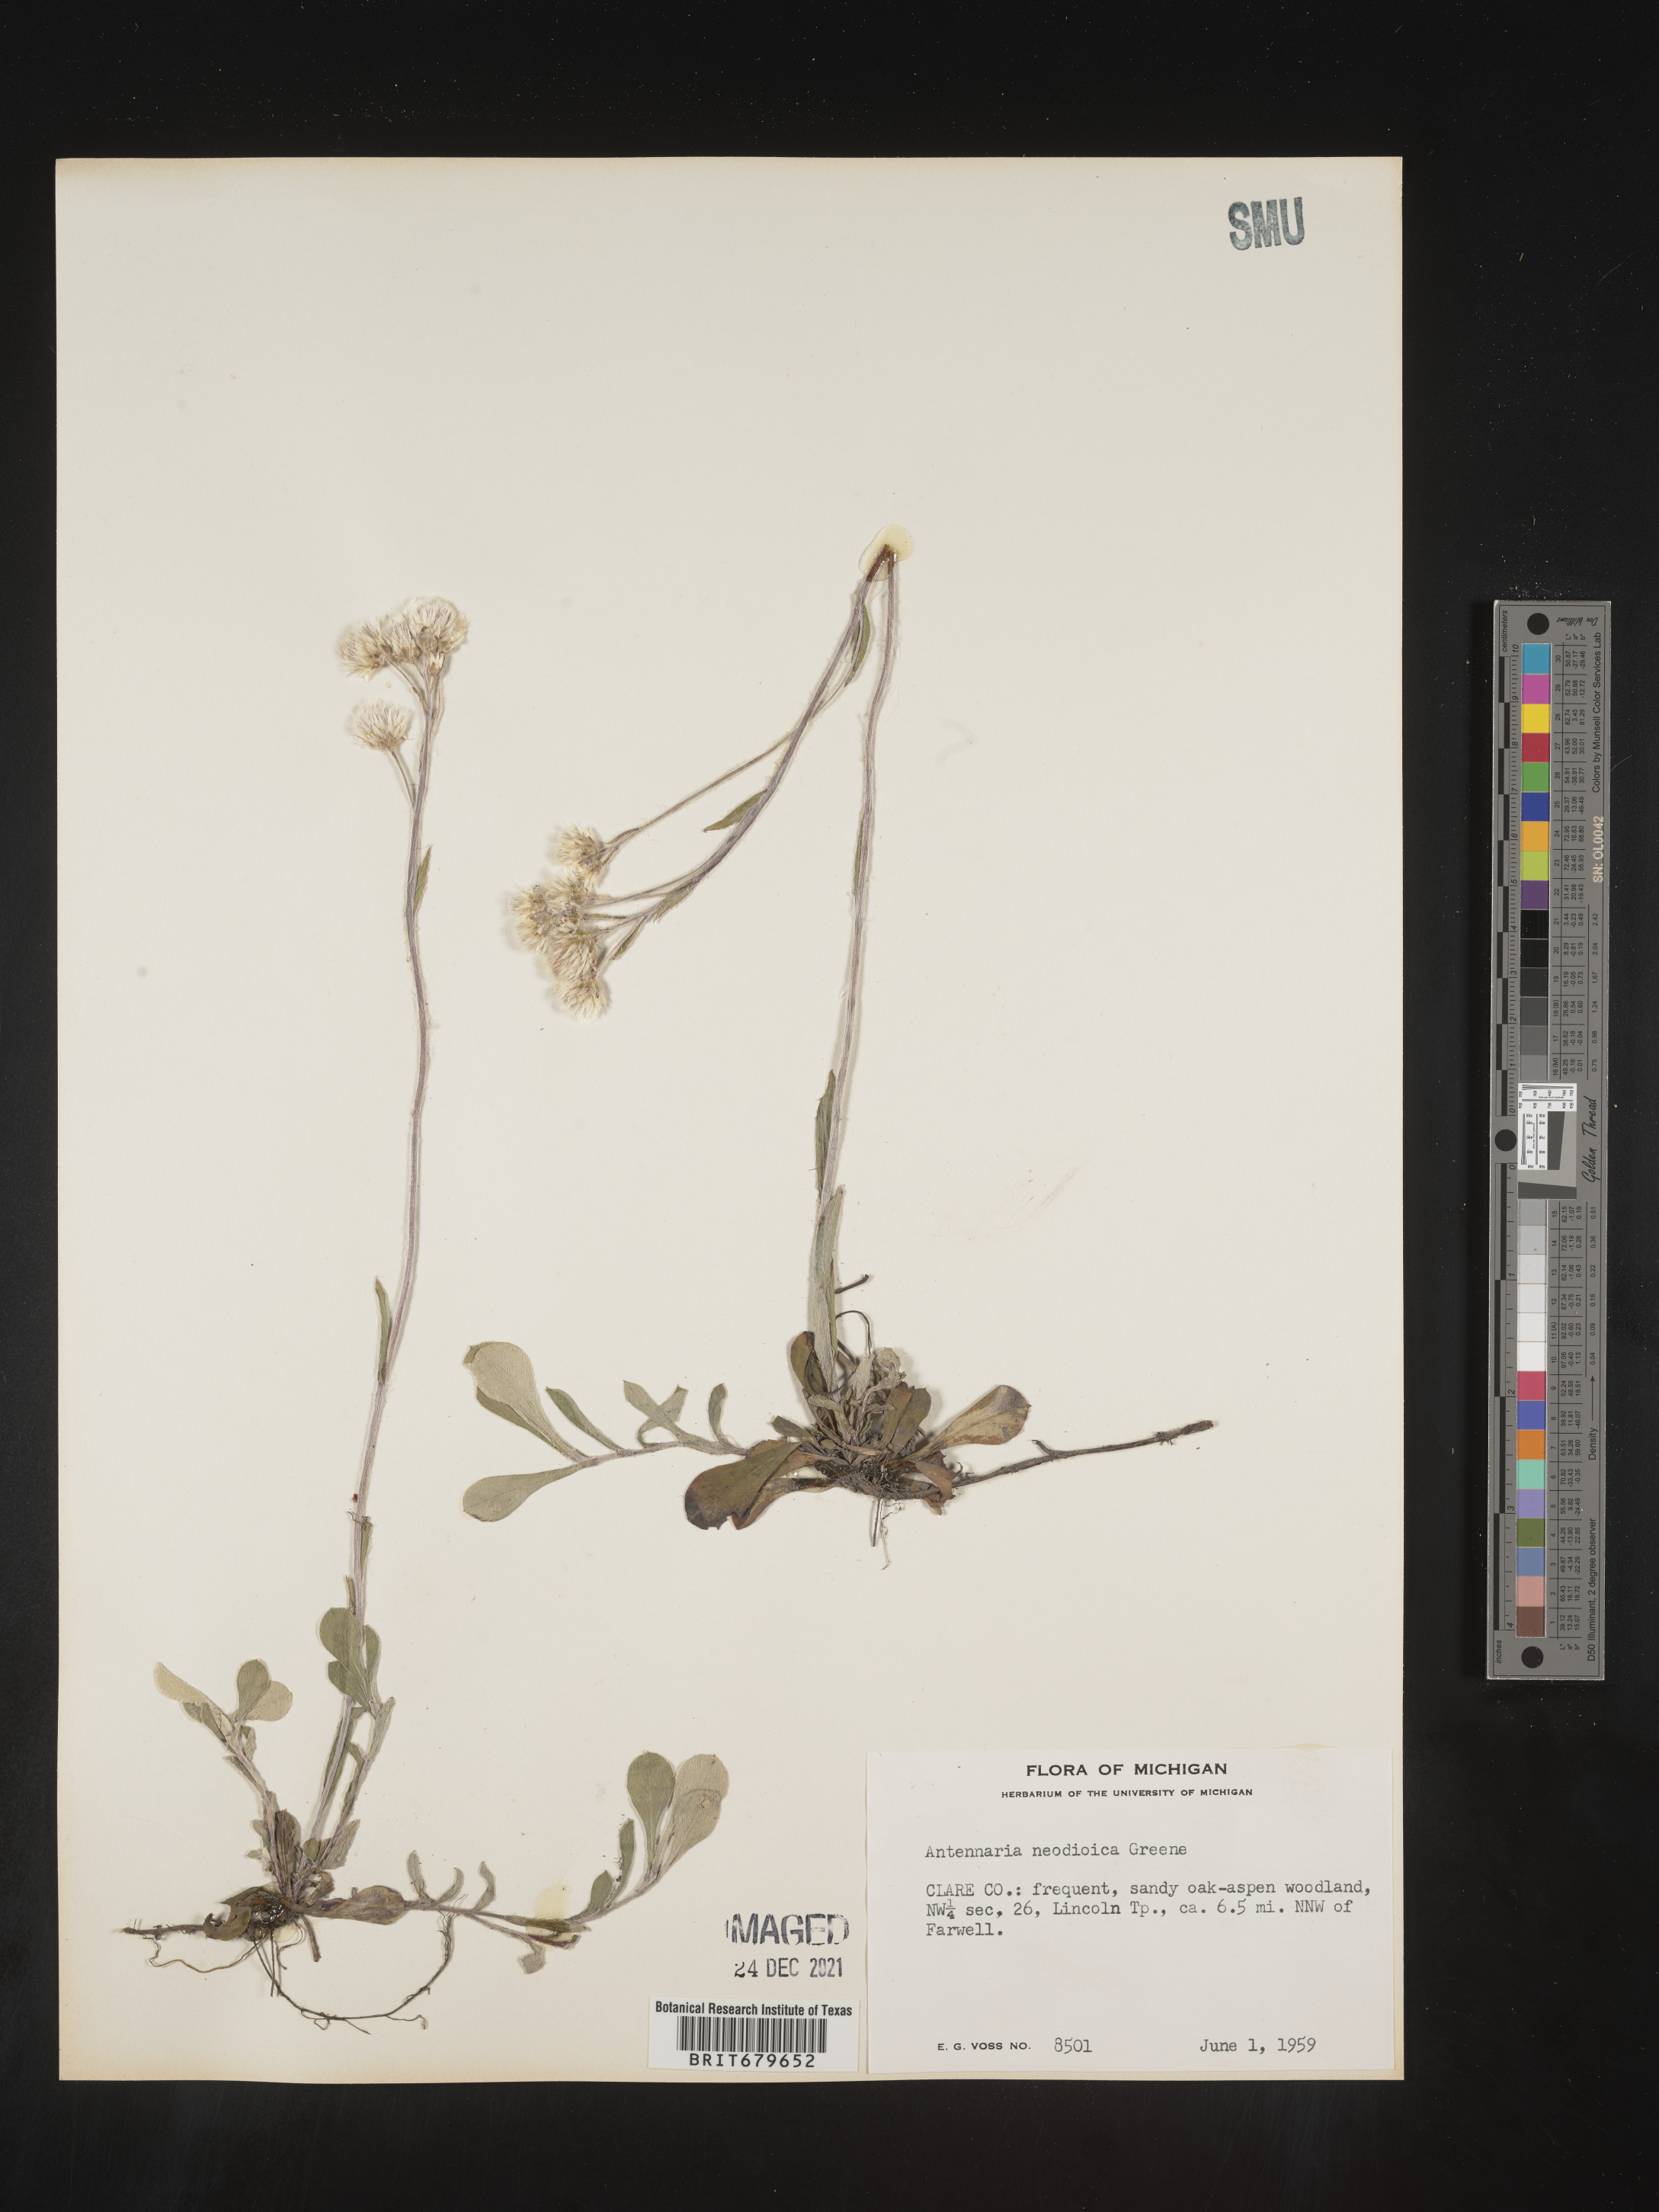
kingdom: Plantae
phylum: Tracheophyta
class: Magnoliopsida
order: Asterales
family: Asteraceae
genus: Antennaria
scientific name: Antennaria howellii
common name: Howell's pussytoes
